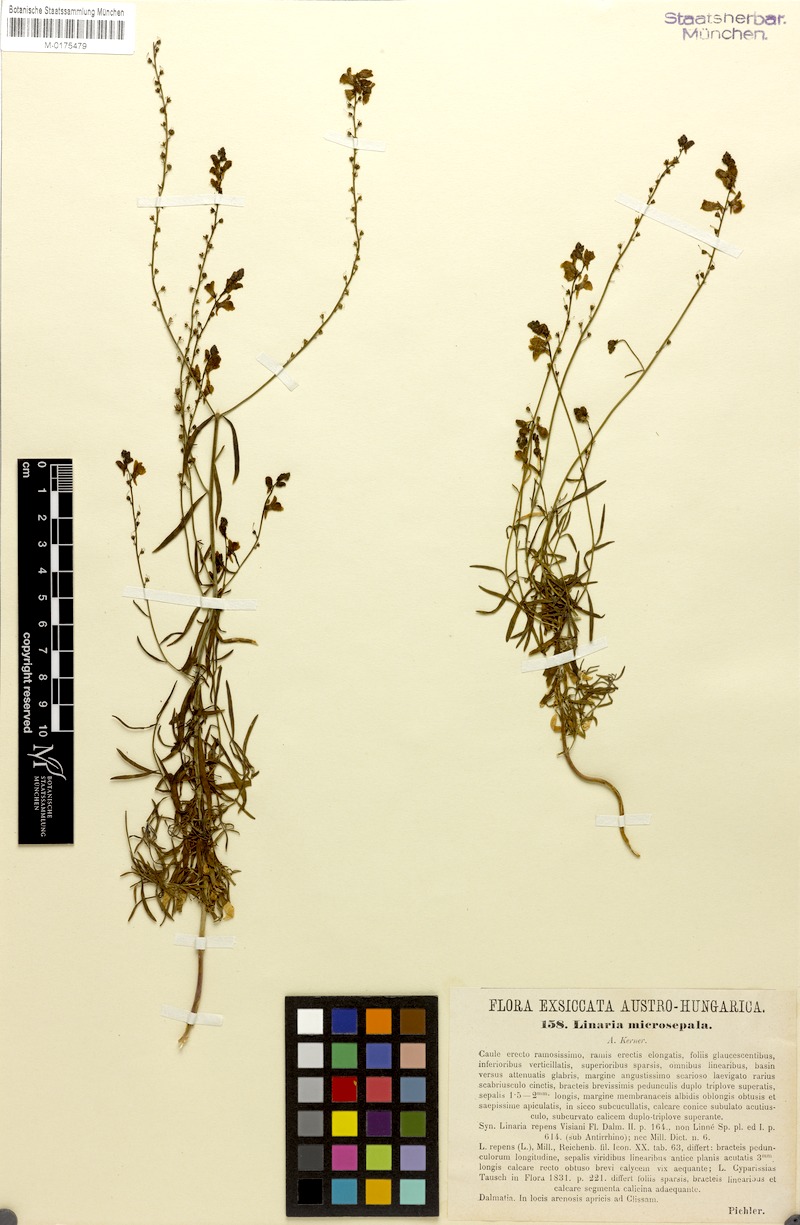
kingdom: Plantae
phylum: Tracheophyta
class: Magnoliopsida
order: Lamiales
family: Plantaginaceae
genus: Linaria
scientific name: Linaria microsepala
